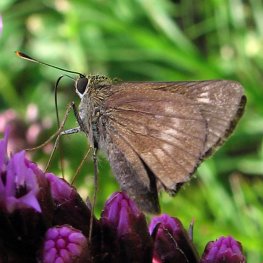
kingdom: Animalia
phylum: Arthropoda
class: Insecta
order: Lepidoptera
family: Hesperiidae
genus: Polites
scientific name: Polites themistocles
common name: Tawny-edged Skipper
